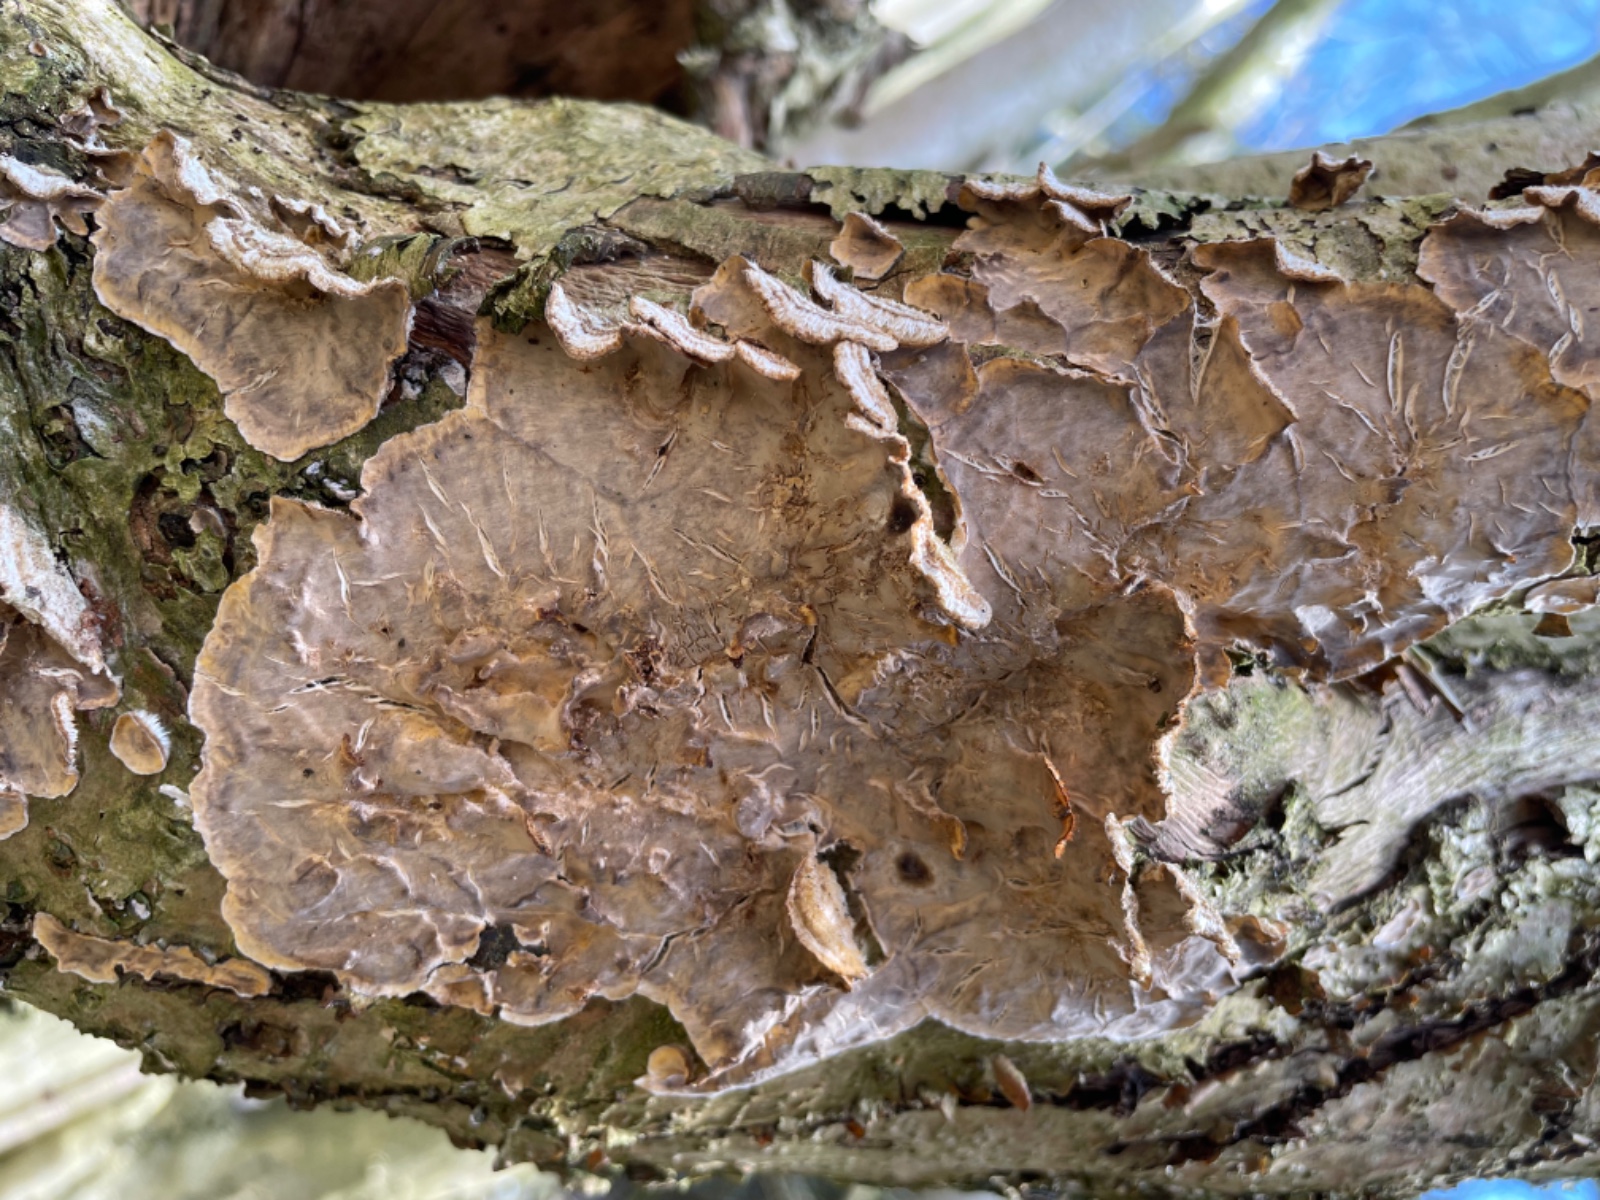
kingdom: Fungi
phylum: Basidiomycota
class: Agaricomycetes
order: Russulales
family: Stereaceae
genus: Stereum
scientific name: Stereum
